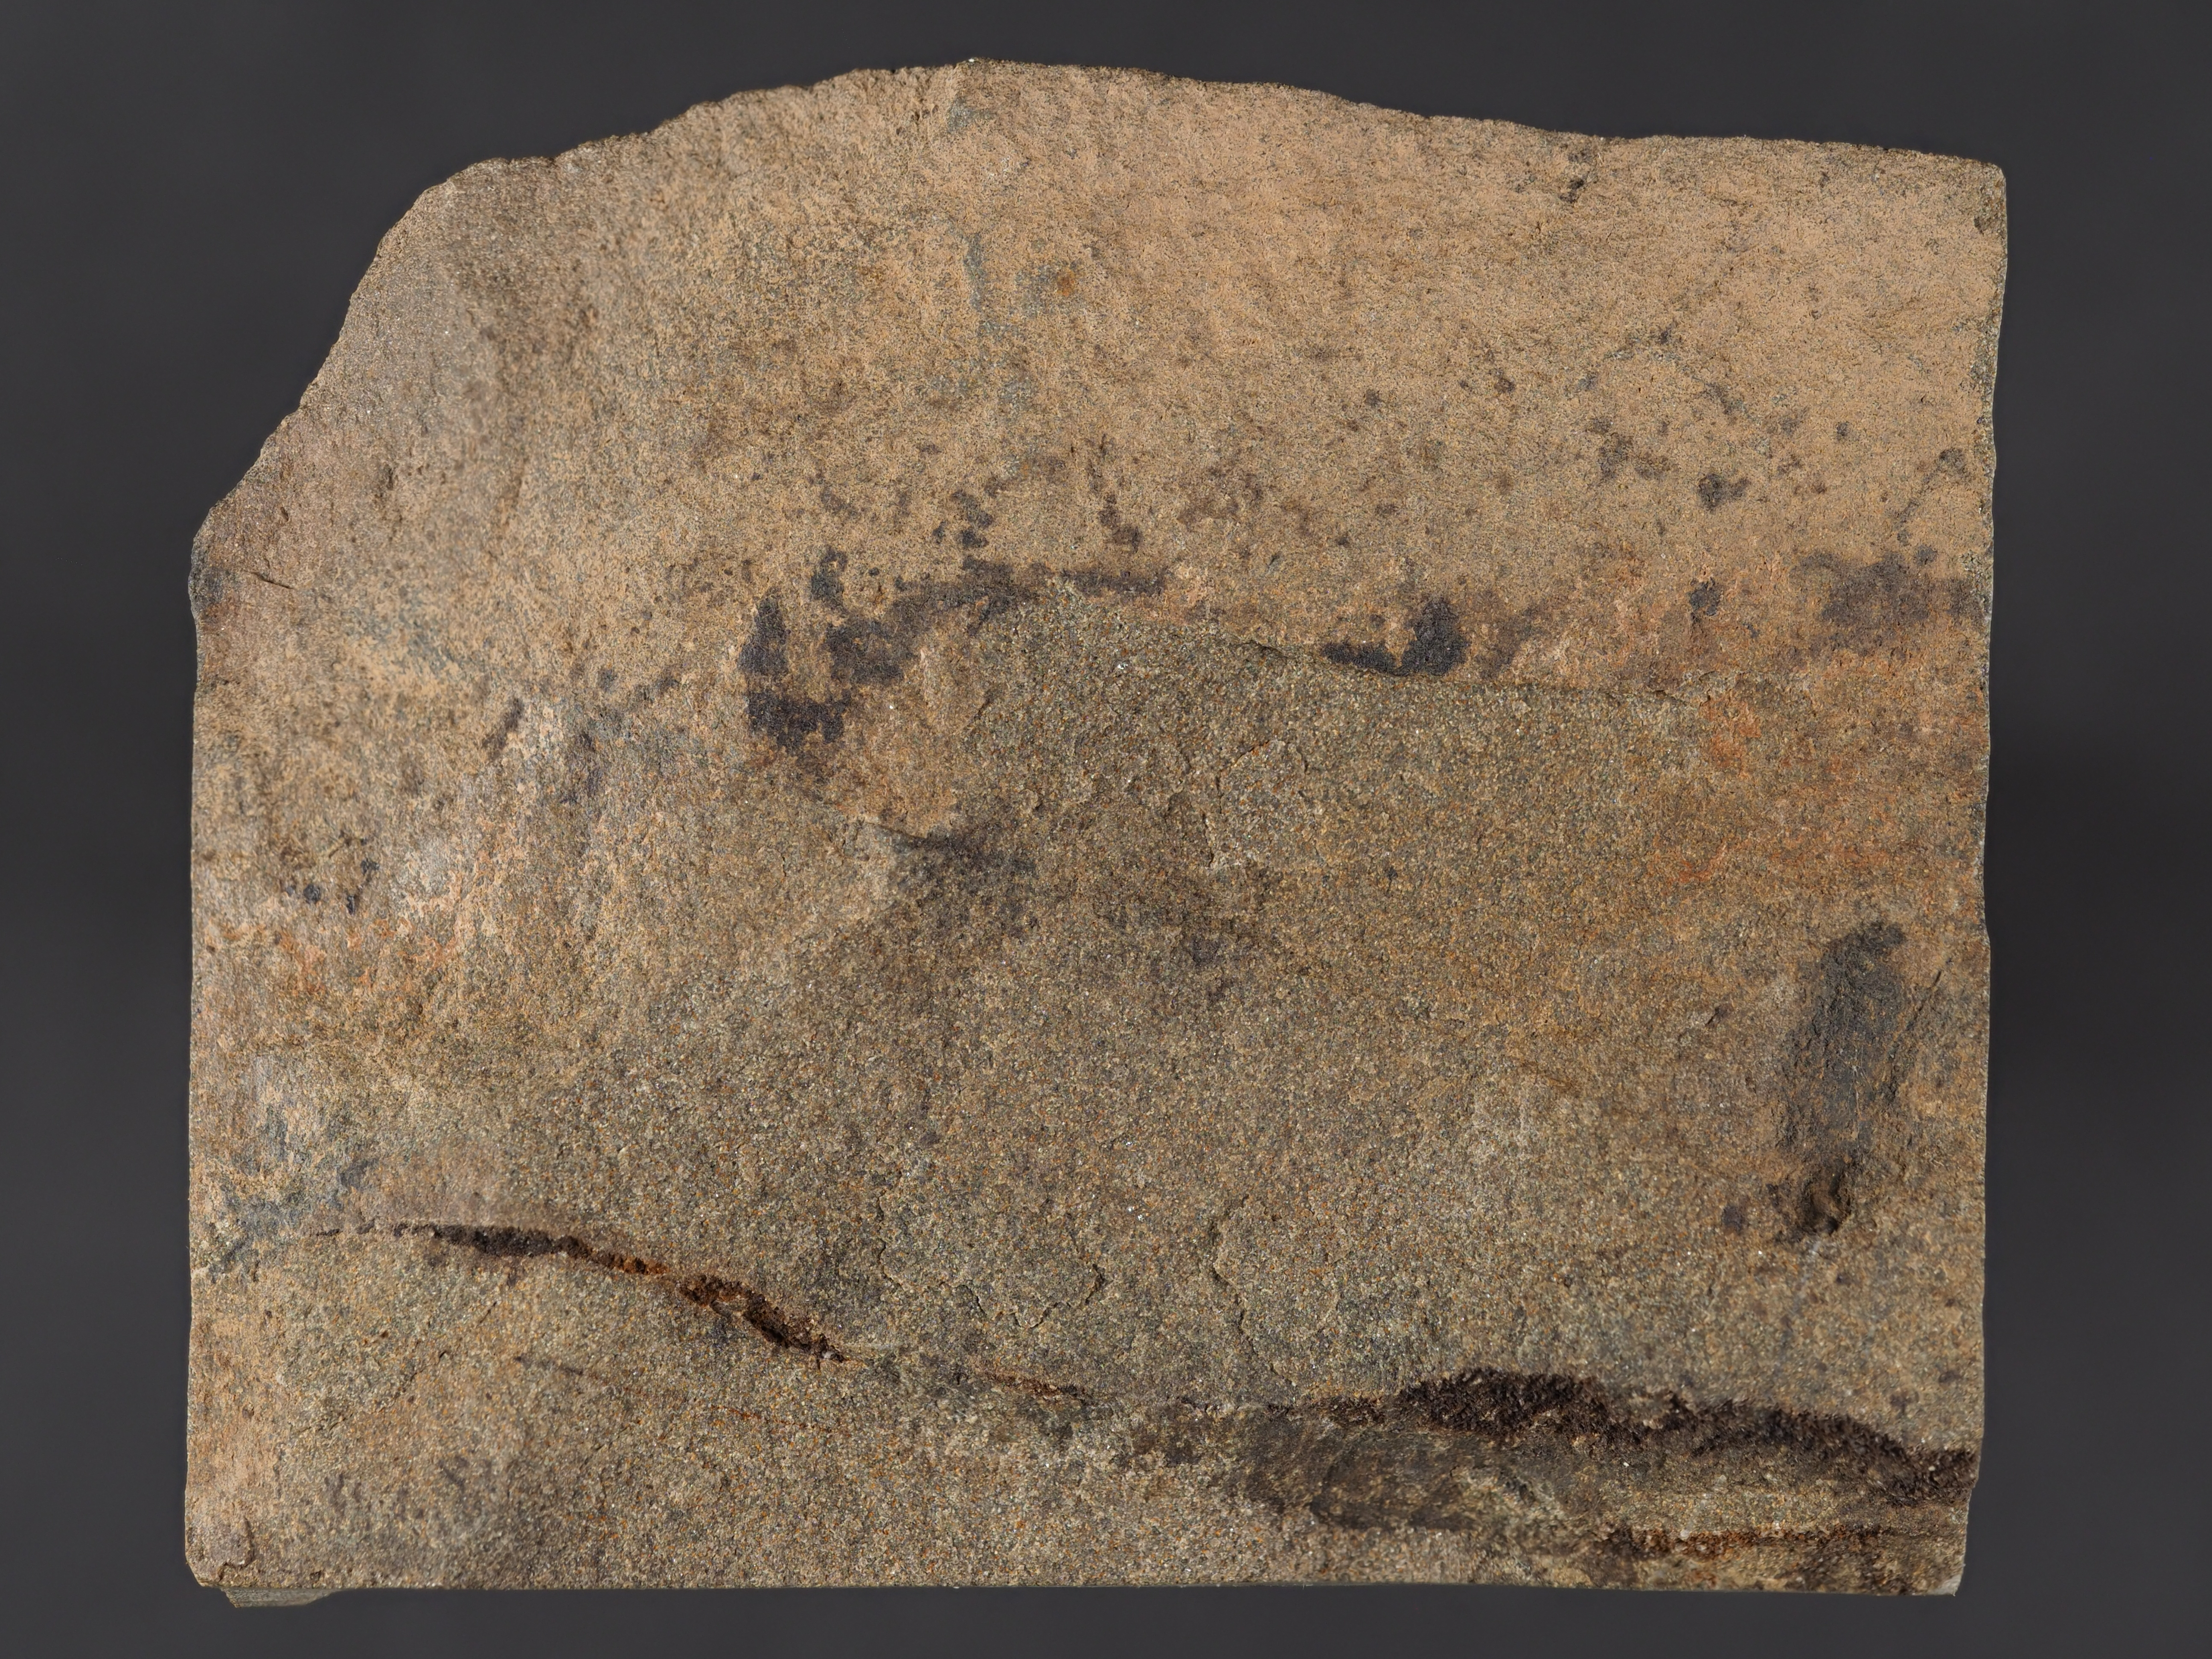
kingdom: Animalia
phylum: Mollusca
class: Bivalvia
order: Ostreida
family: Pterineidae
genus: Leptodesma
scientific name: Leptodesma
